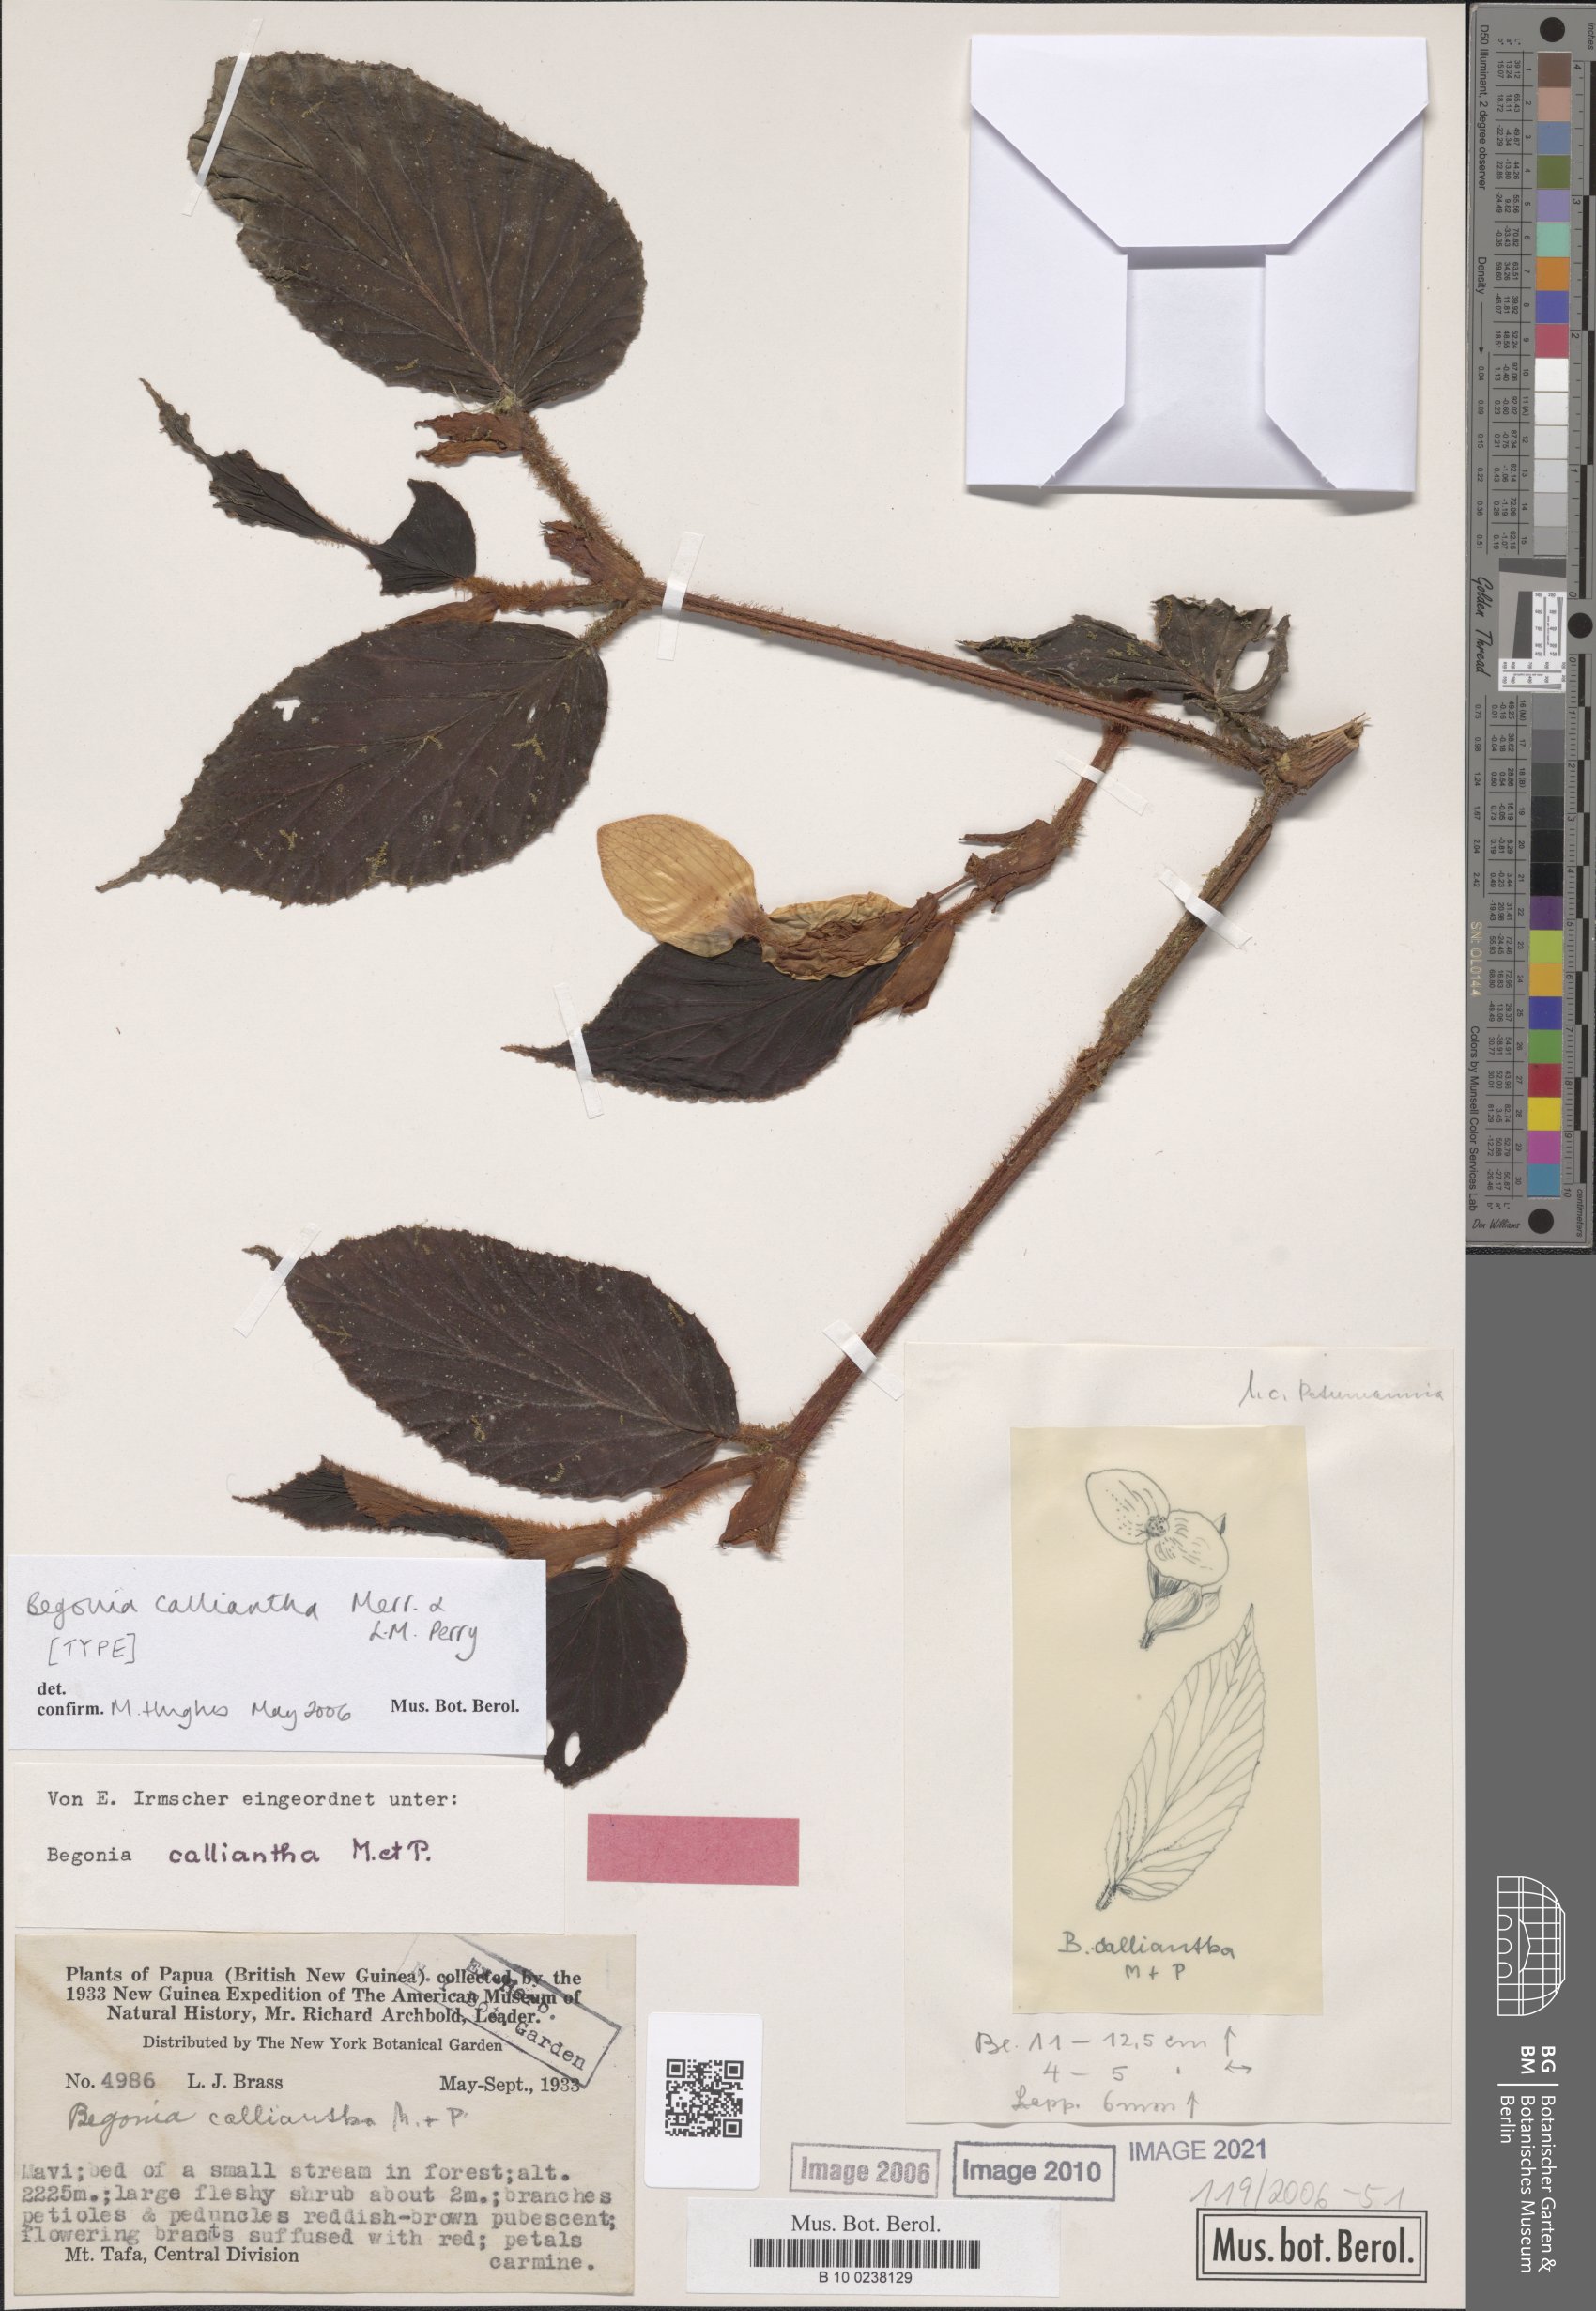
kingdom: Plantae
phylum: Tracheophyta
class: Magnoliopsida
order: Cucurbitales
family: Begoniaceae
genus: Begonia
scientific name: Begonia calliantha
